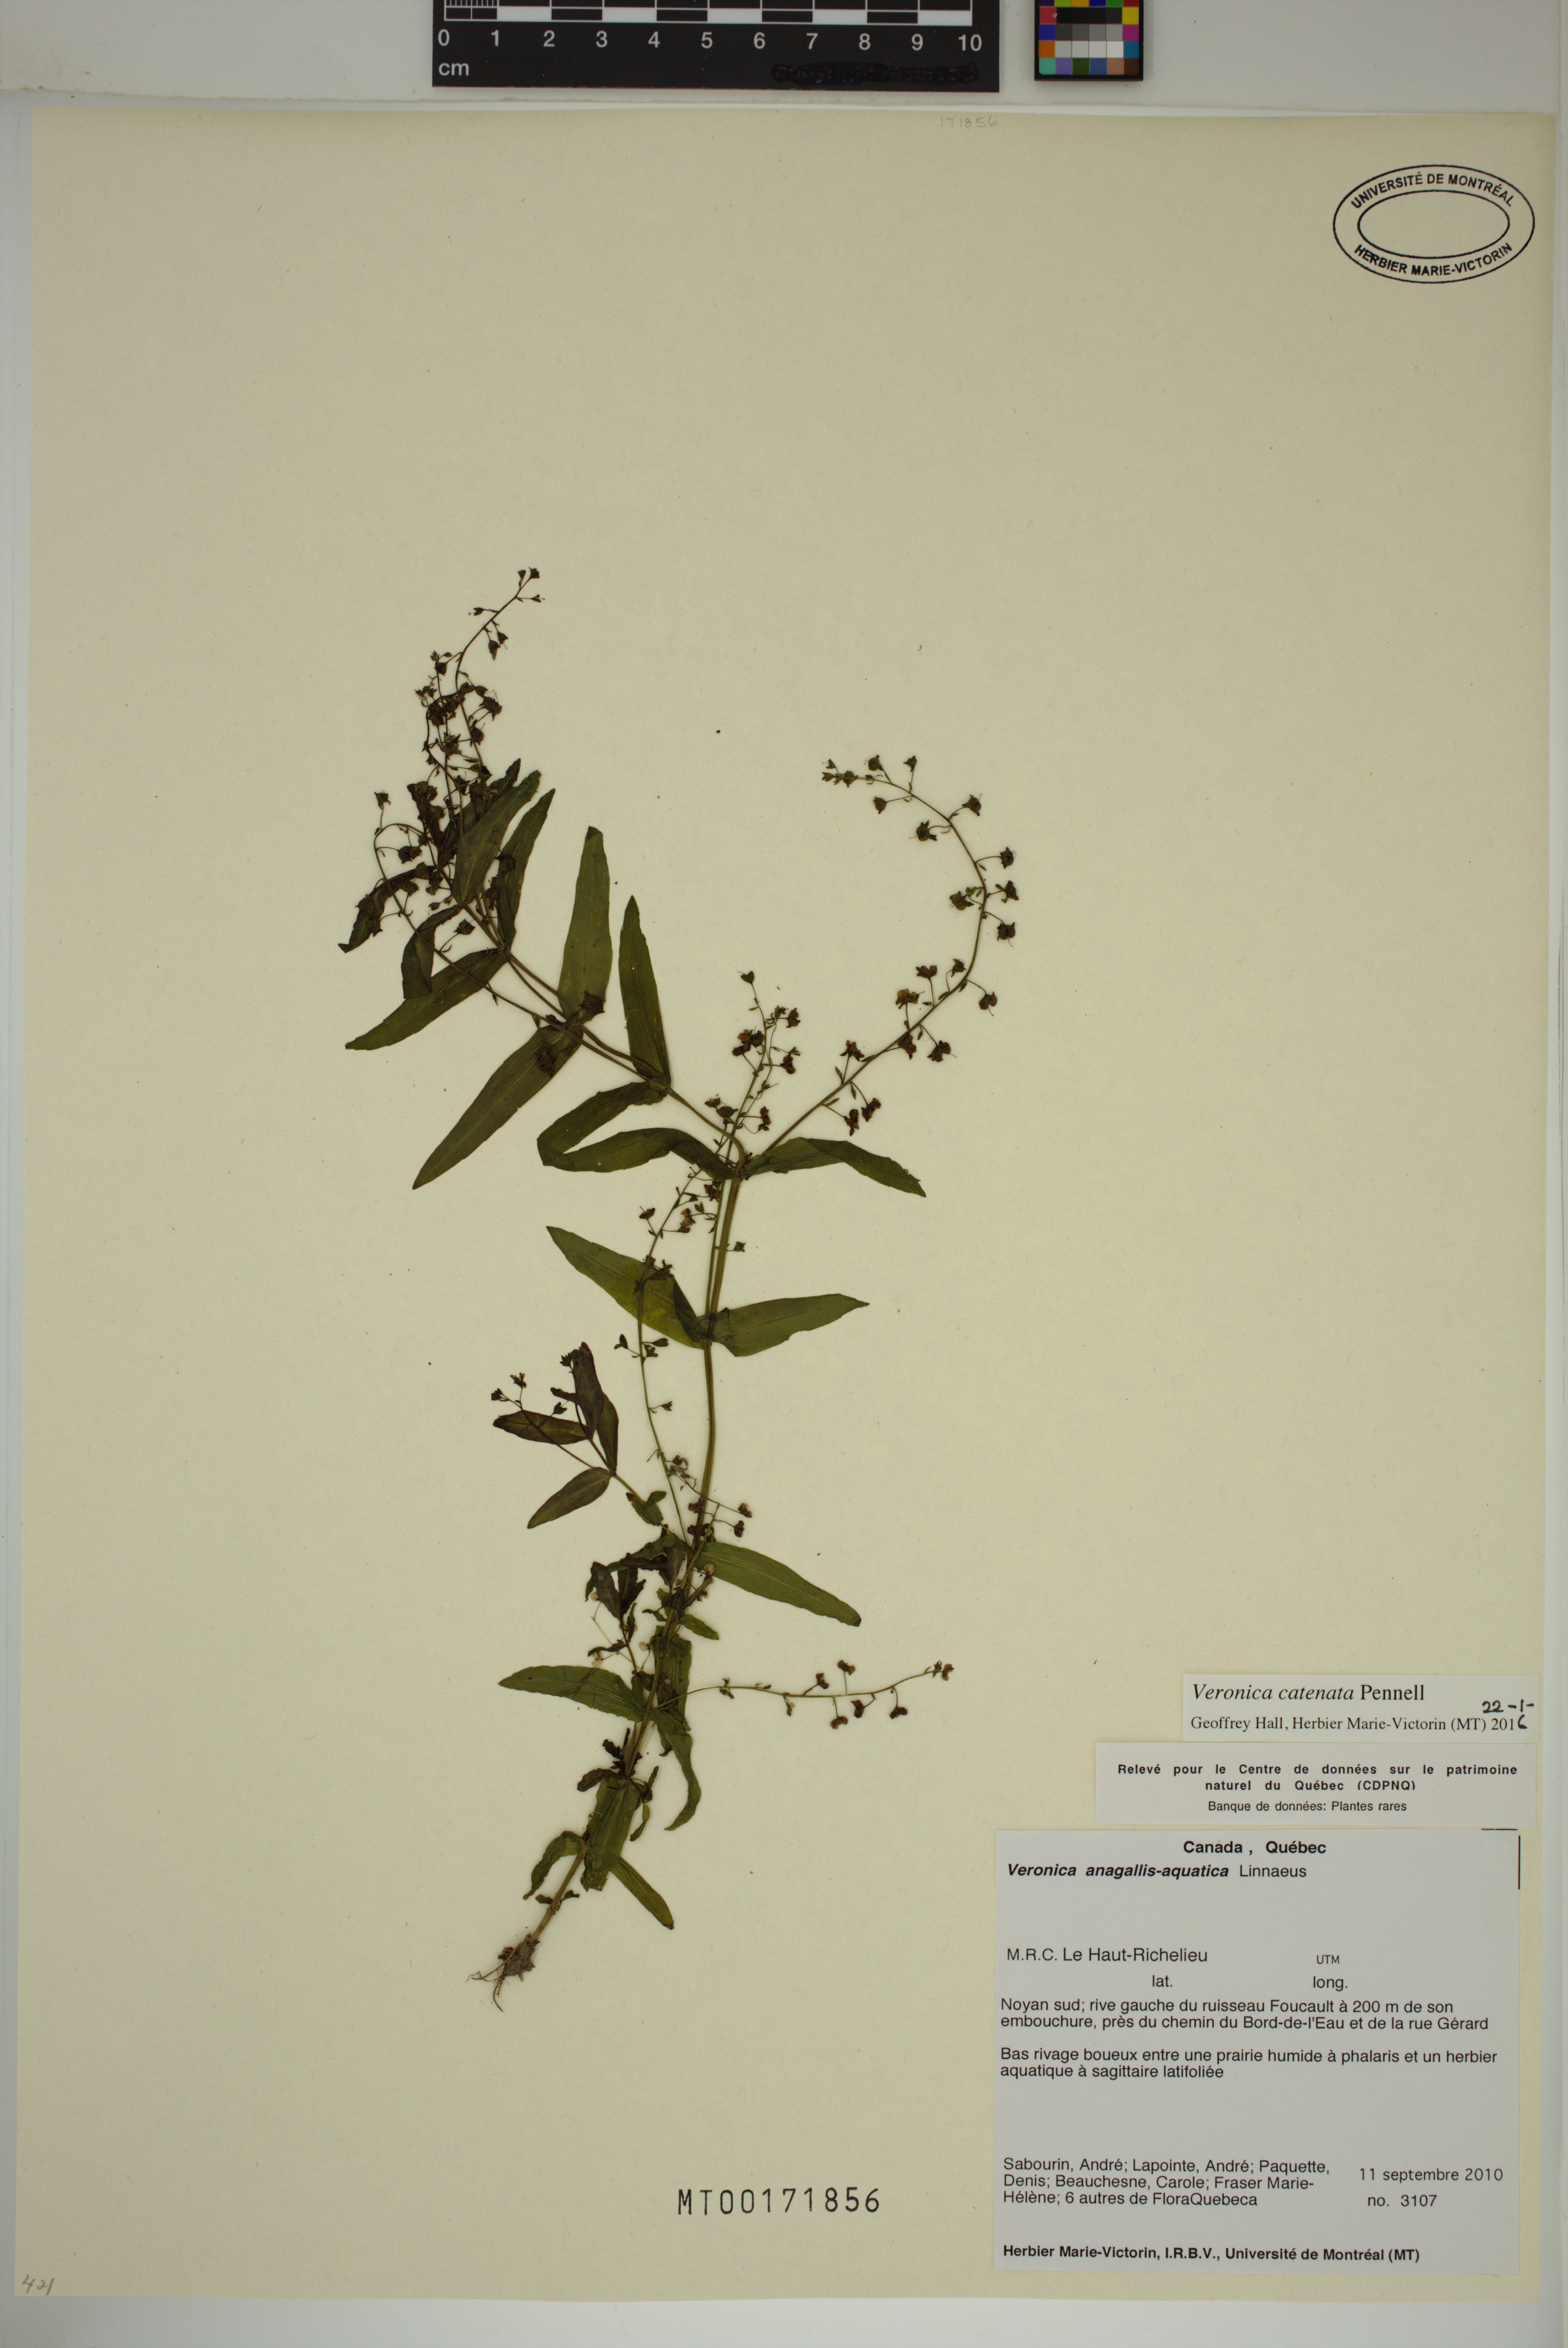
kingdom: Plantae
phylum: Tracheophyta
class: Magnoliopsida
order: Lamiales
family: Plantaginaceae
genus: Veronica
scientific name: Veronica catenata
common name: Pink water-speedwell
